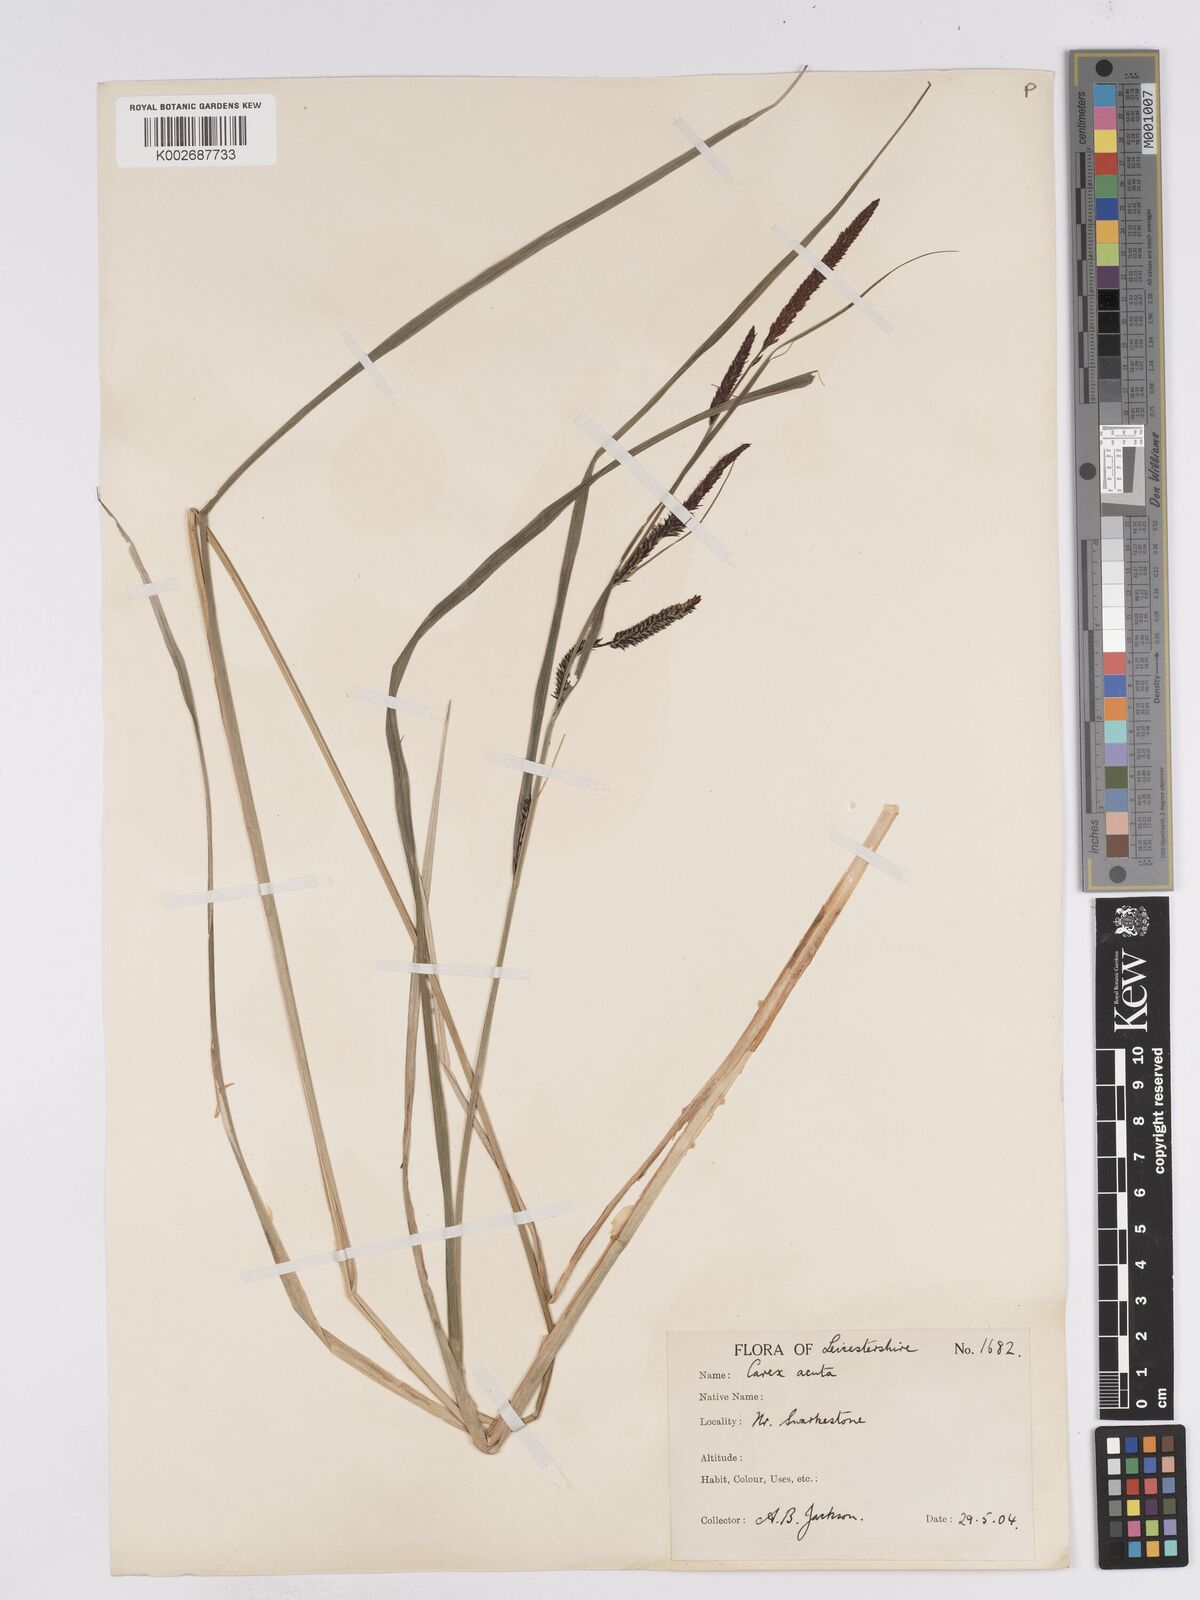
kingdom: Plantae
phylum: Tracheophyta
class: Liliopsida
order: Poales
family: Cyperaceae
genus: Carex
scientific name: Carex acuta
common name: Slender tufted-sedge
